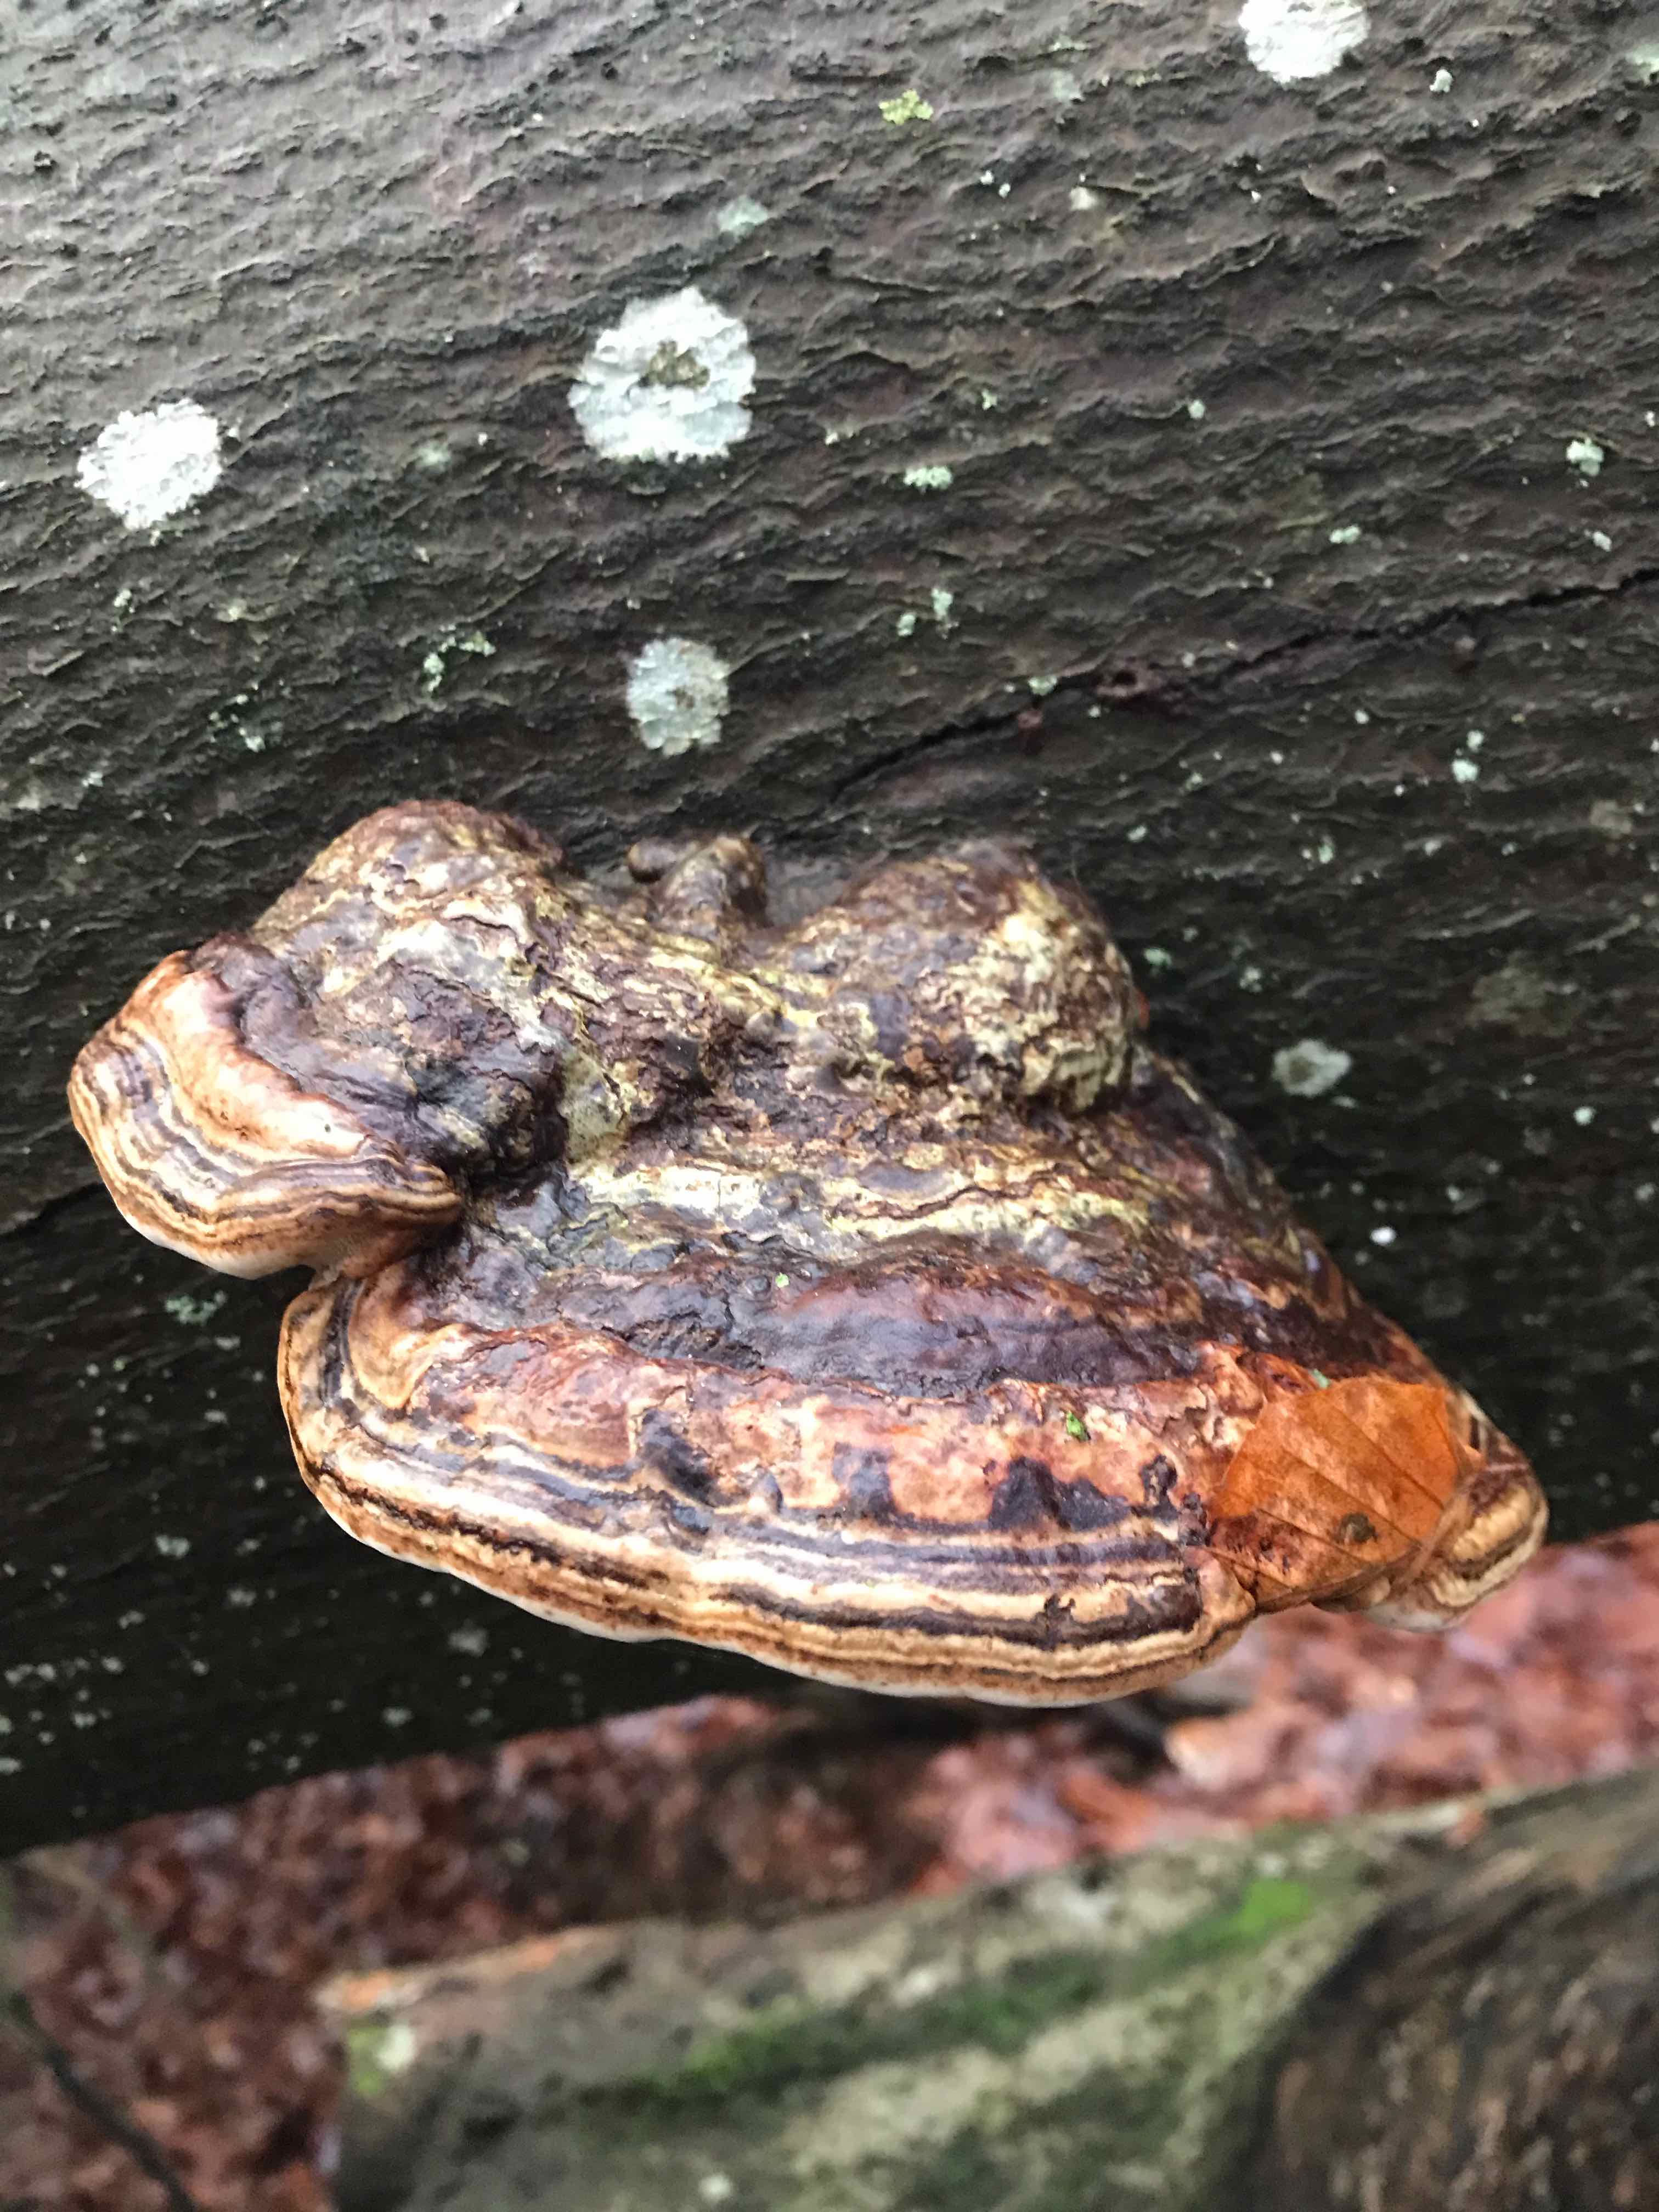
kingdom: Fungi
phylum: Basidiomycota
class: Agaricomycetes
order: Polyporales
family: Polyporaceae
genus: Fomes
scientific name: Fomes fomentarius
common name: tøndersvamp
